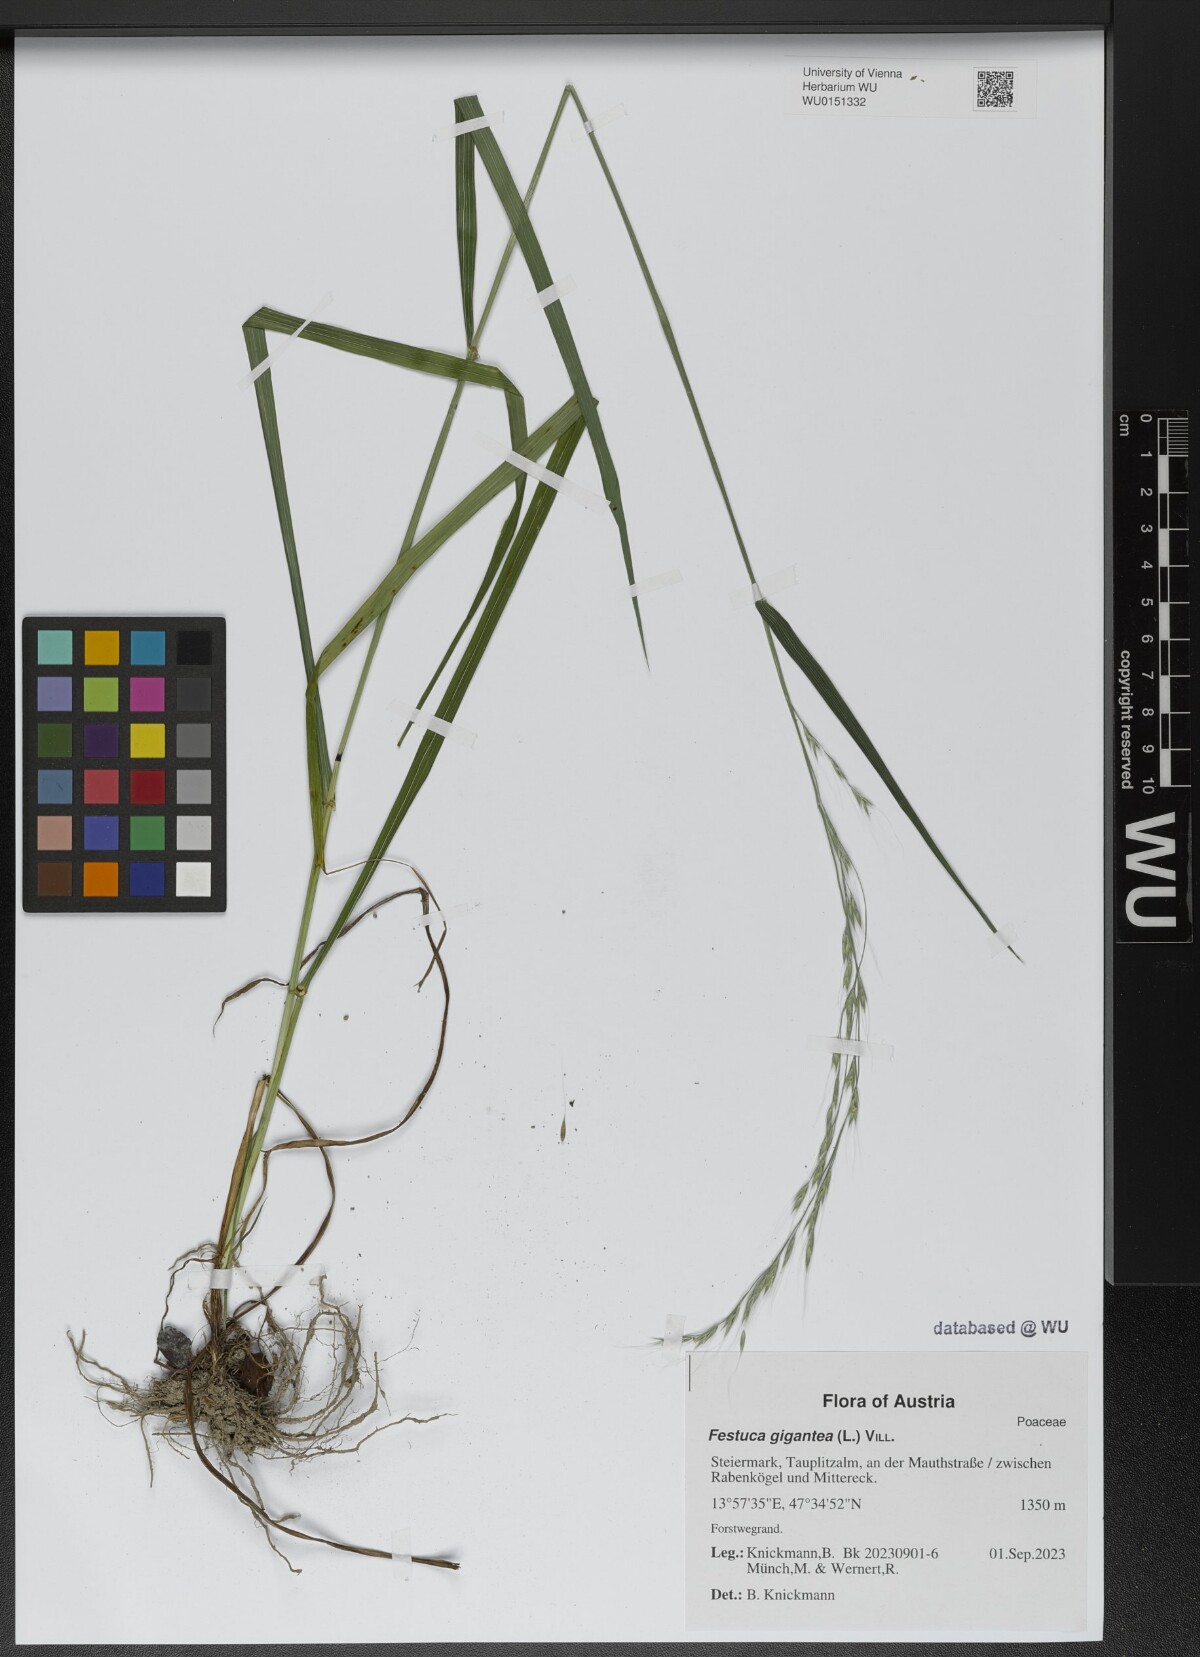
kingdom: Plantae
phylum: Tracheophyta
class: Liliopsida
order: Poales
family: Poaceae
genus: Lolium
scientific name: Lolium giganteum
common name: Giant fescue
